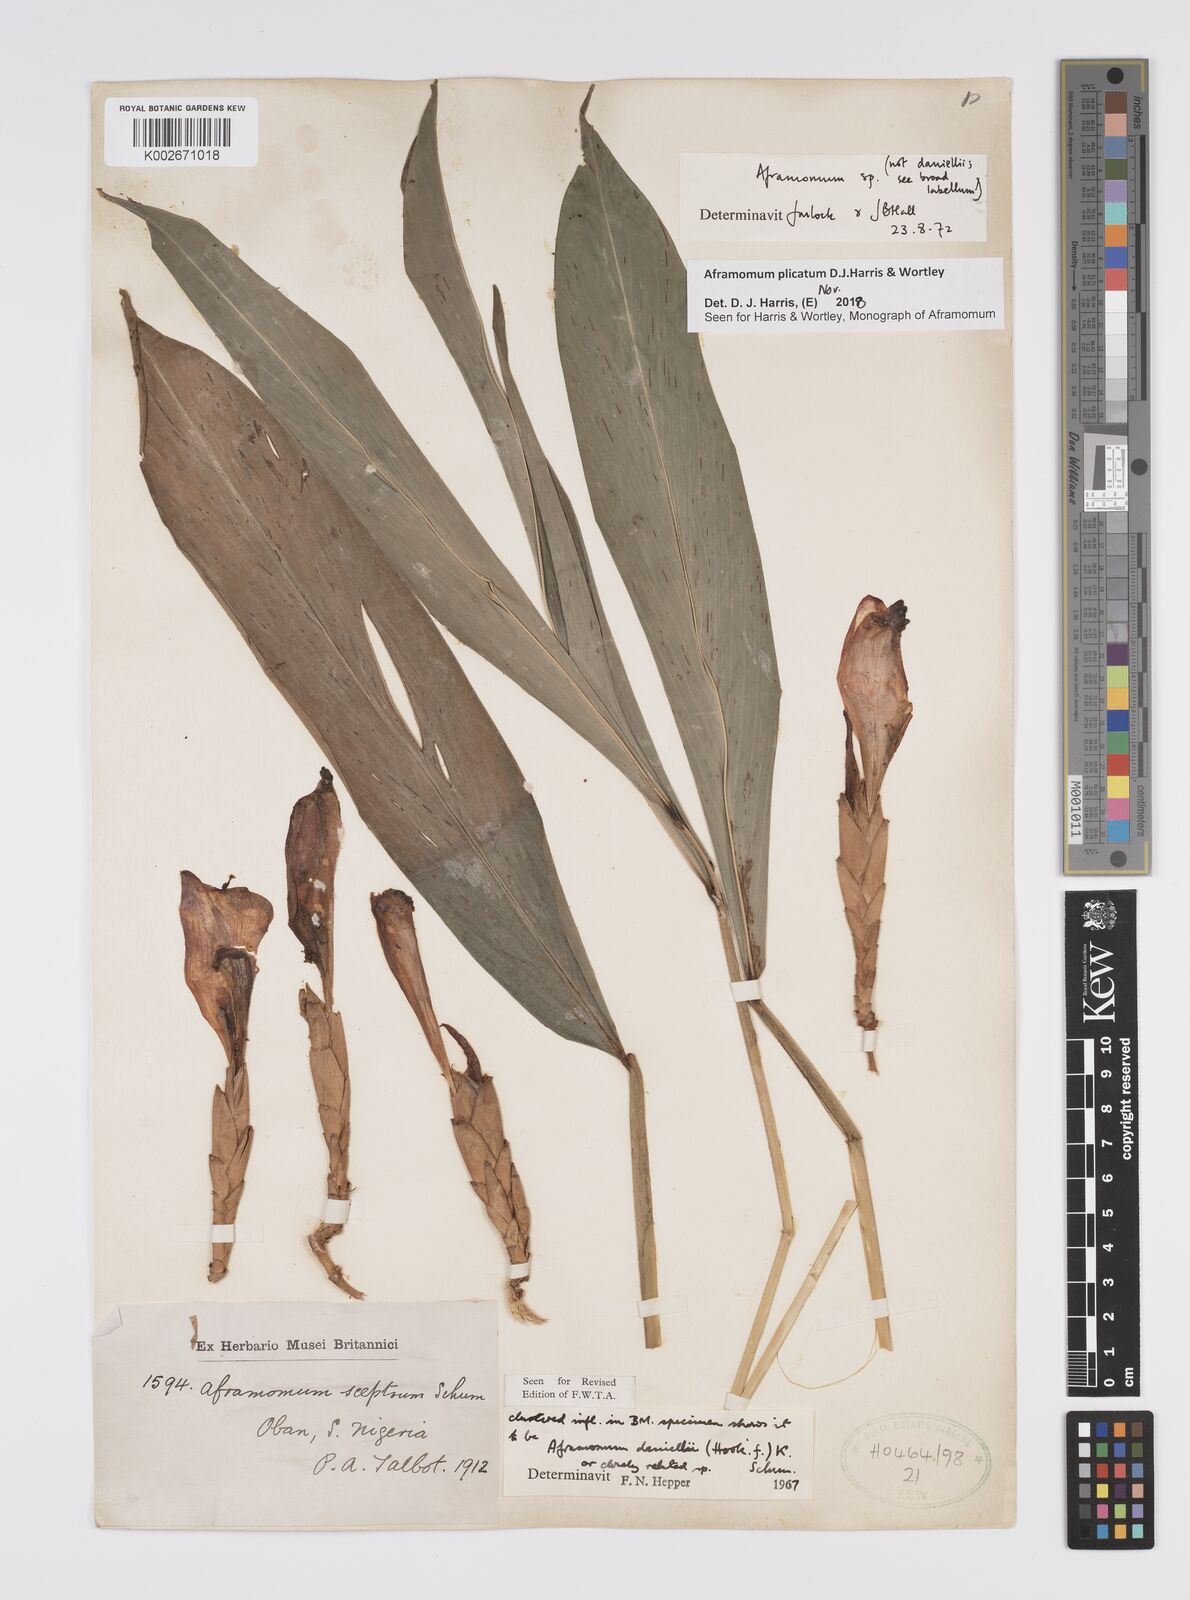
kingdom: Plantae
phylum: Tracheophyta
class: Liliopsida
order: Zingiberales
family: Zingiberaceae
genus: Aframomum
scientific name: Aframomum plicatum
